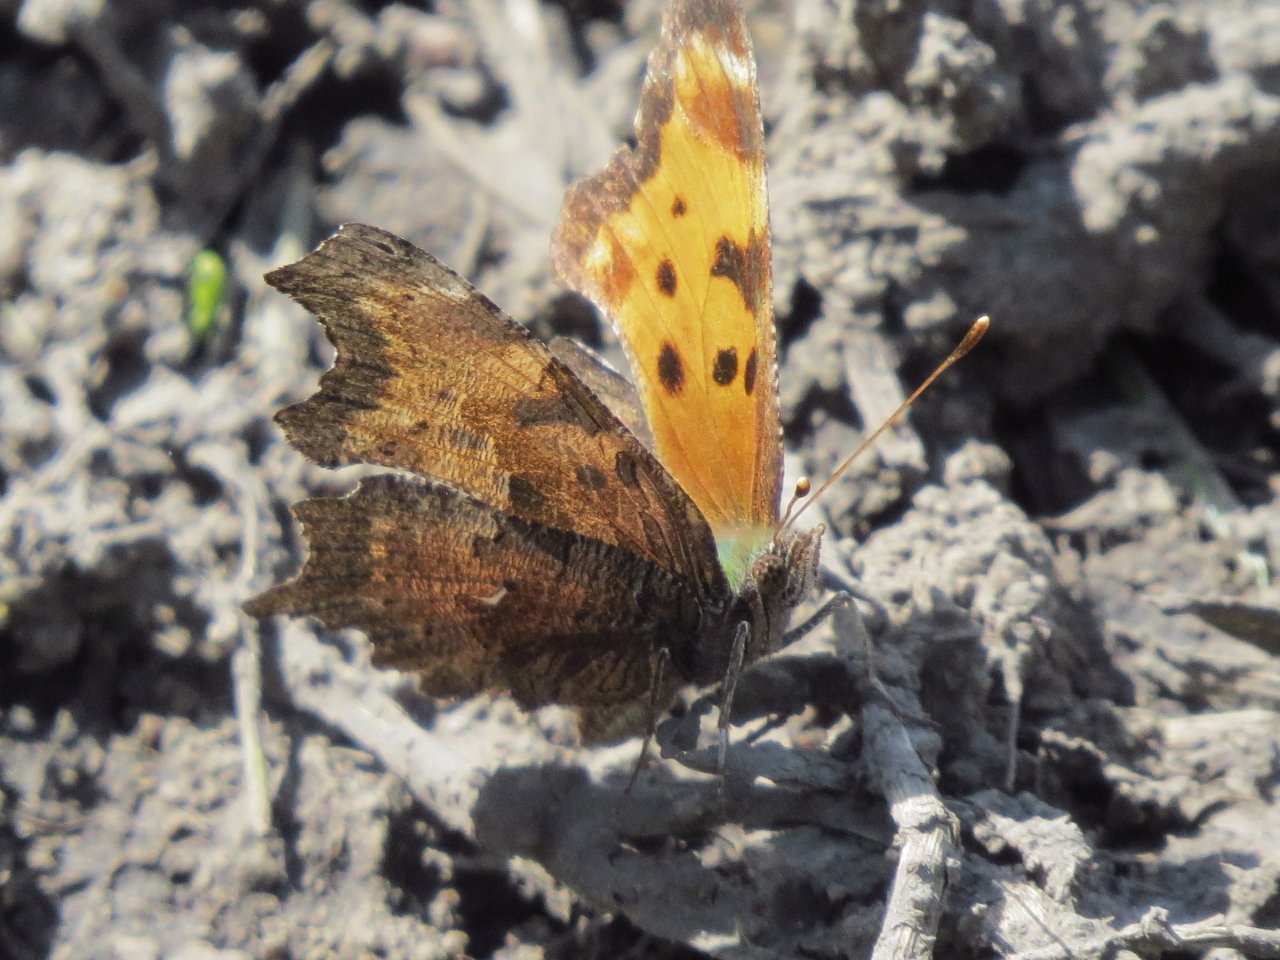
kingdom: Animalia
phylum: Arthropoda
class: Insecta
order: Lepidoptera
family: Nymphalidae
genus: Polygonia
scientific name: Polygonia satyrus
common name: Satyr Comma
